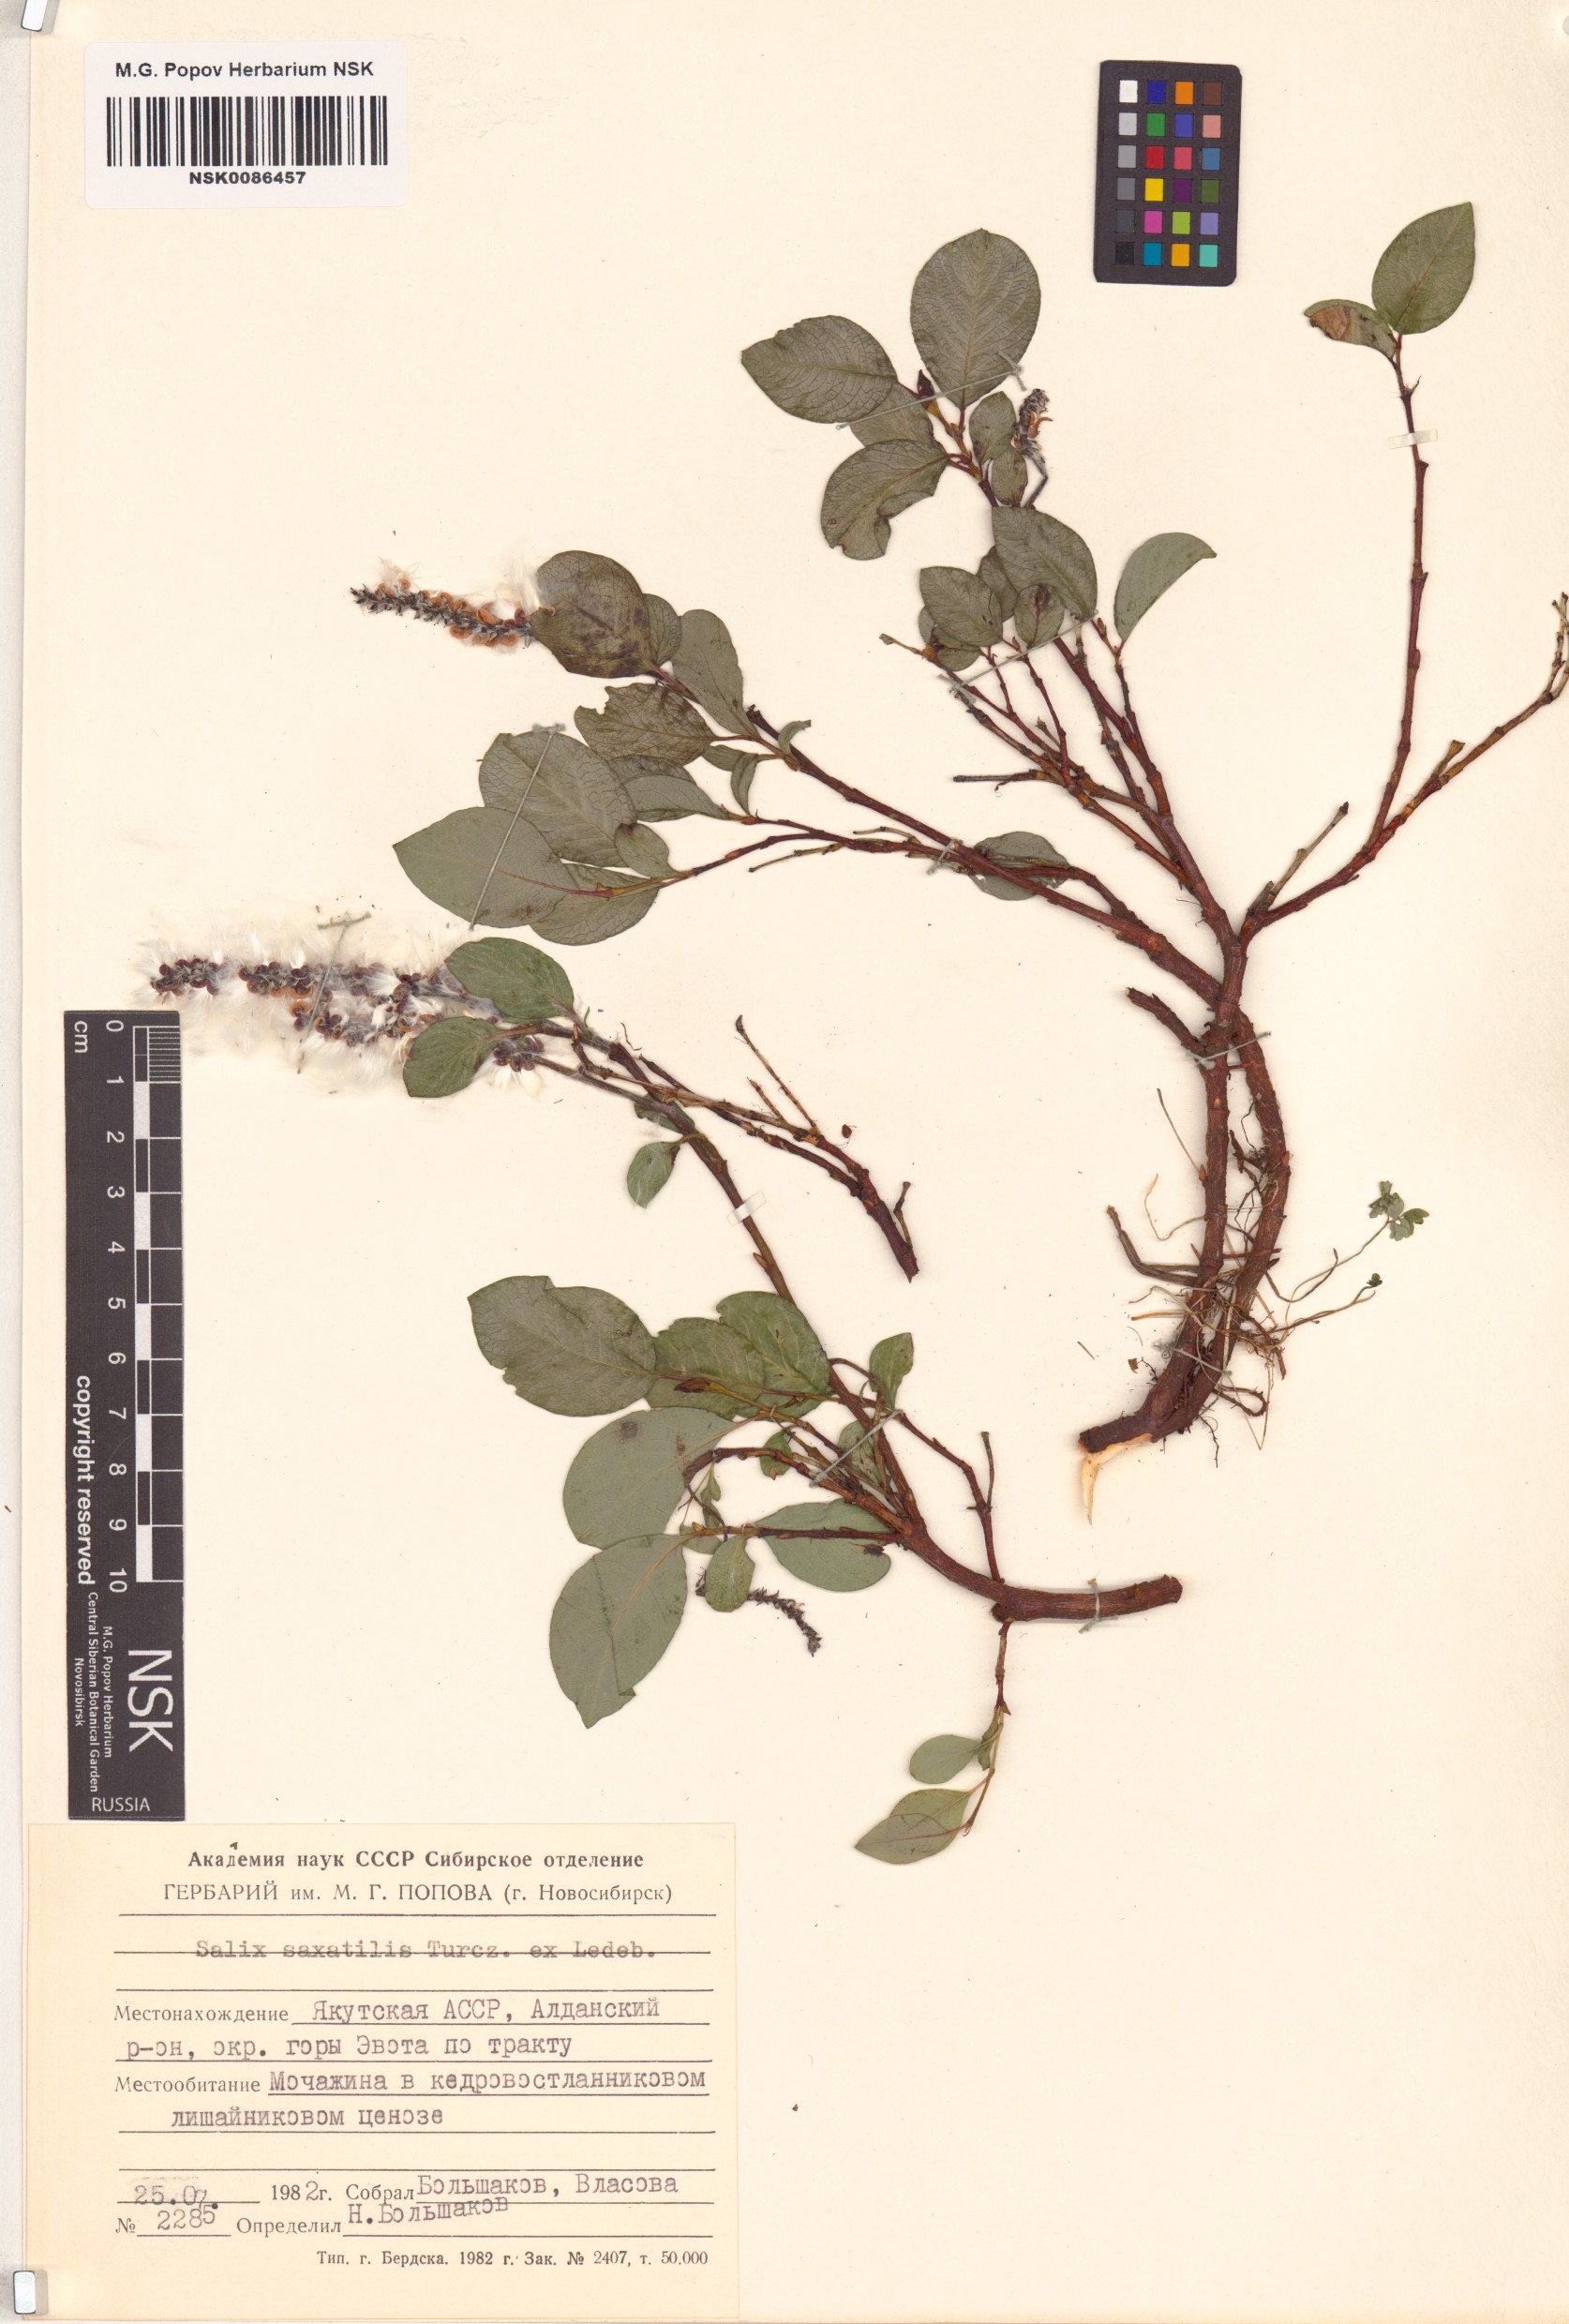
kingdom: Plantae
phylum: Tracheophyta
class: Magnoliopsida
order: Malpighiales
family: Salicaceae
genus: Salix
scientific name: Salix saxatilis
